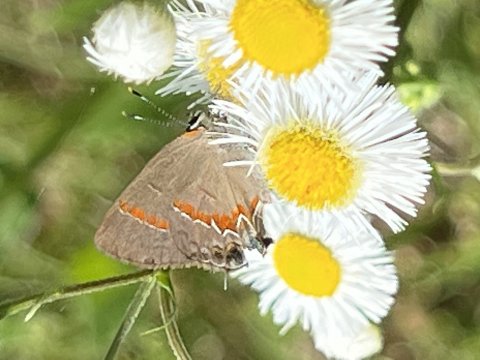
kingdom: Animalia
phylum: Arthropoda
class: Insecta
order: Lepidoptera
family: Lycaenidae
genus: Calycopis
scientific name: Calycopis cecrops
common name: Red-banded Hairstreak
